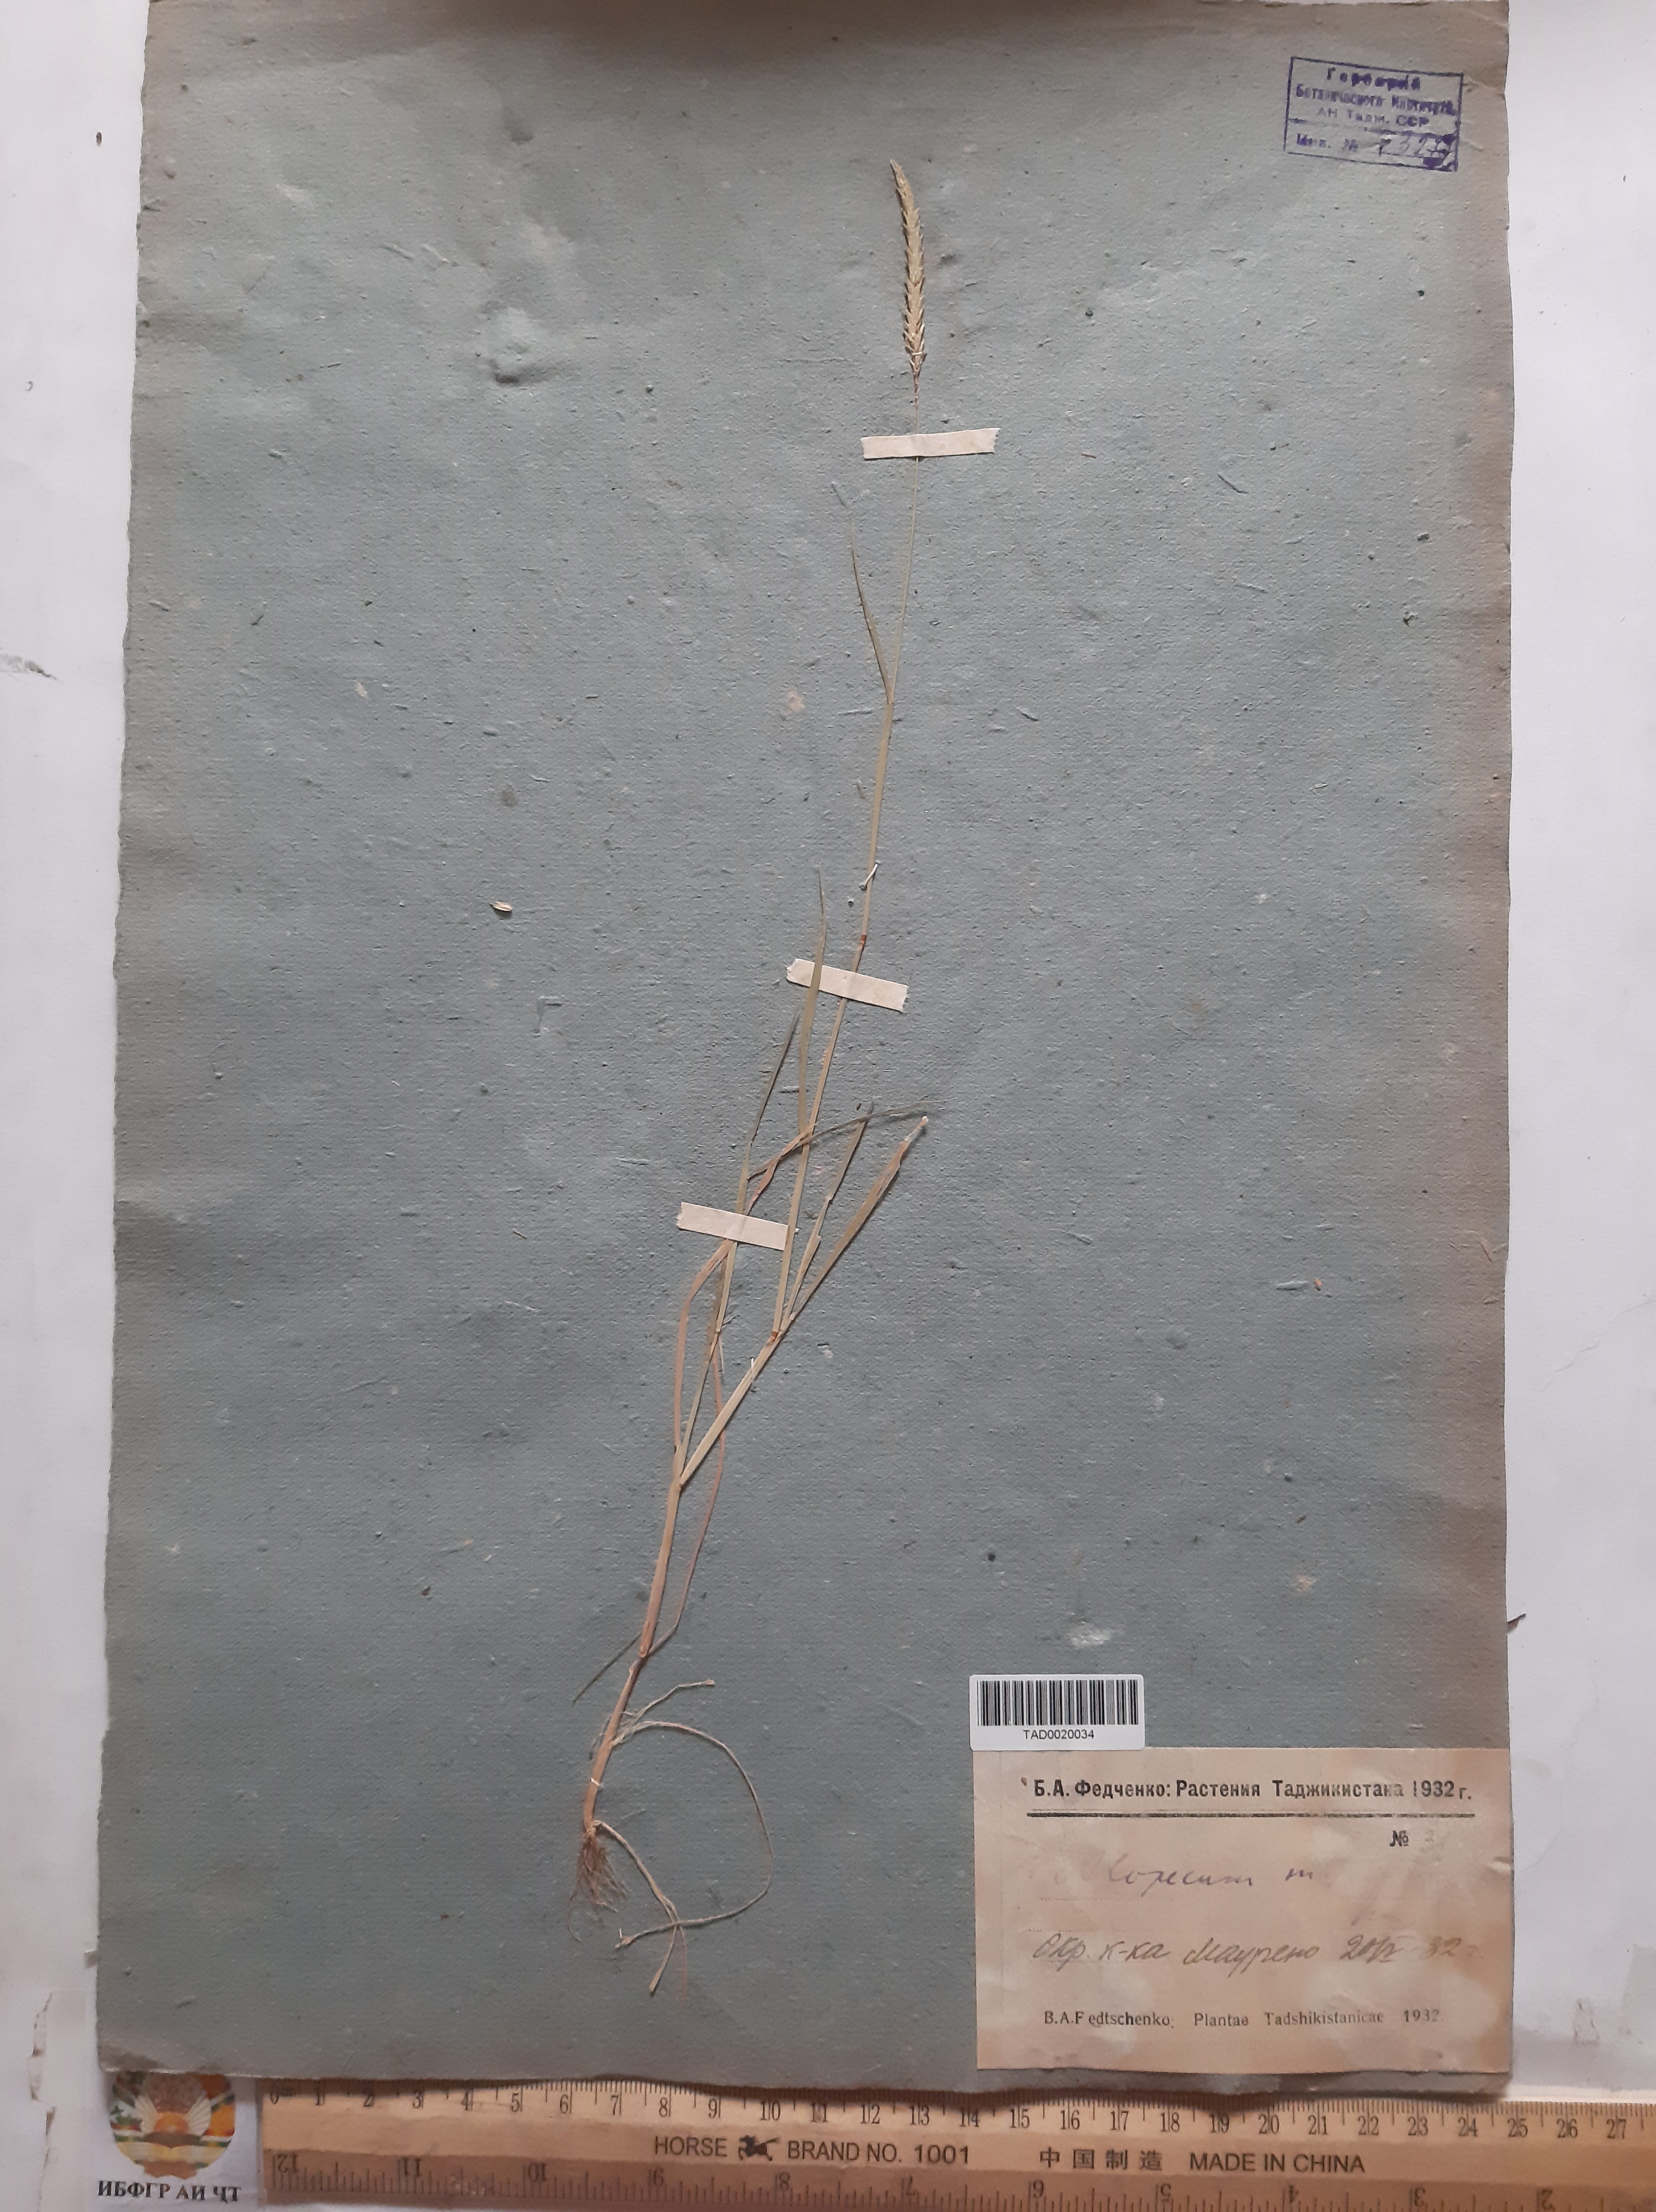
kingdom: Plantae
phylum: Tracheophyta
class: Liliopsida
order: Poales
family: Poaceae
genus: Alopecurus
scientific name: Alopecurus mucronatus
